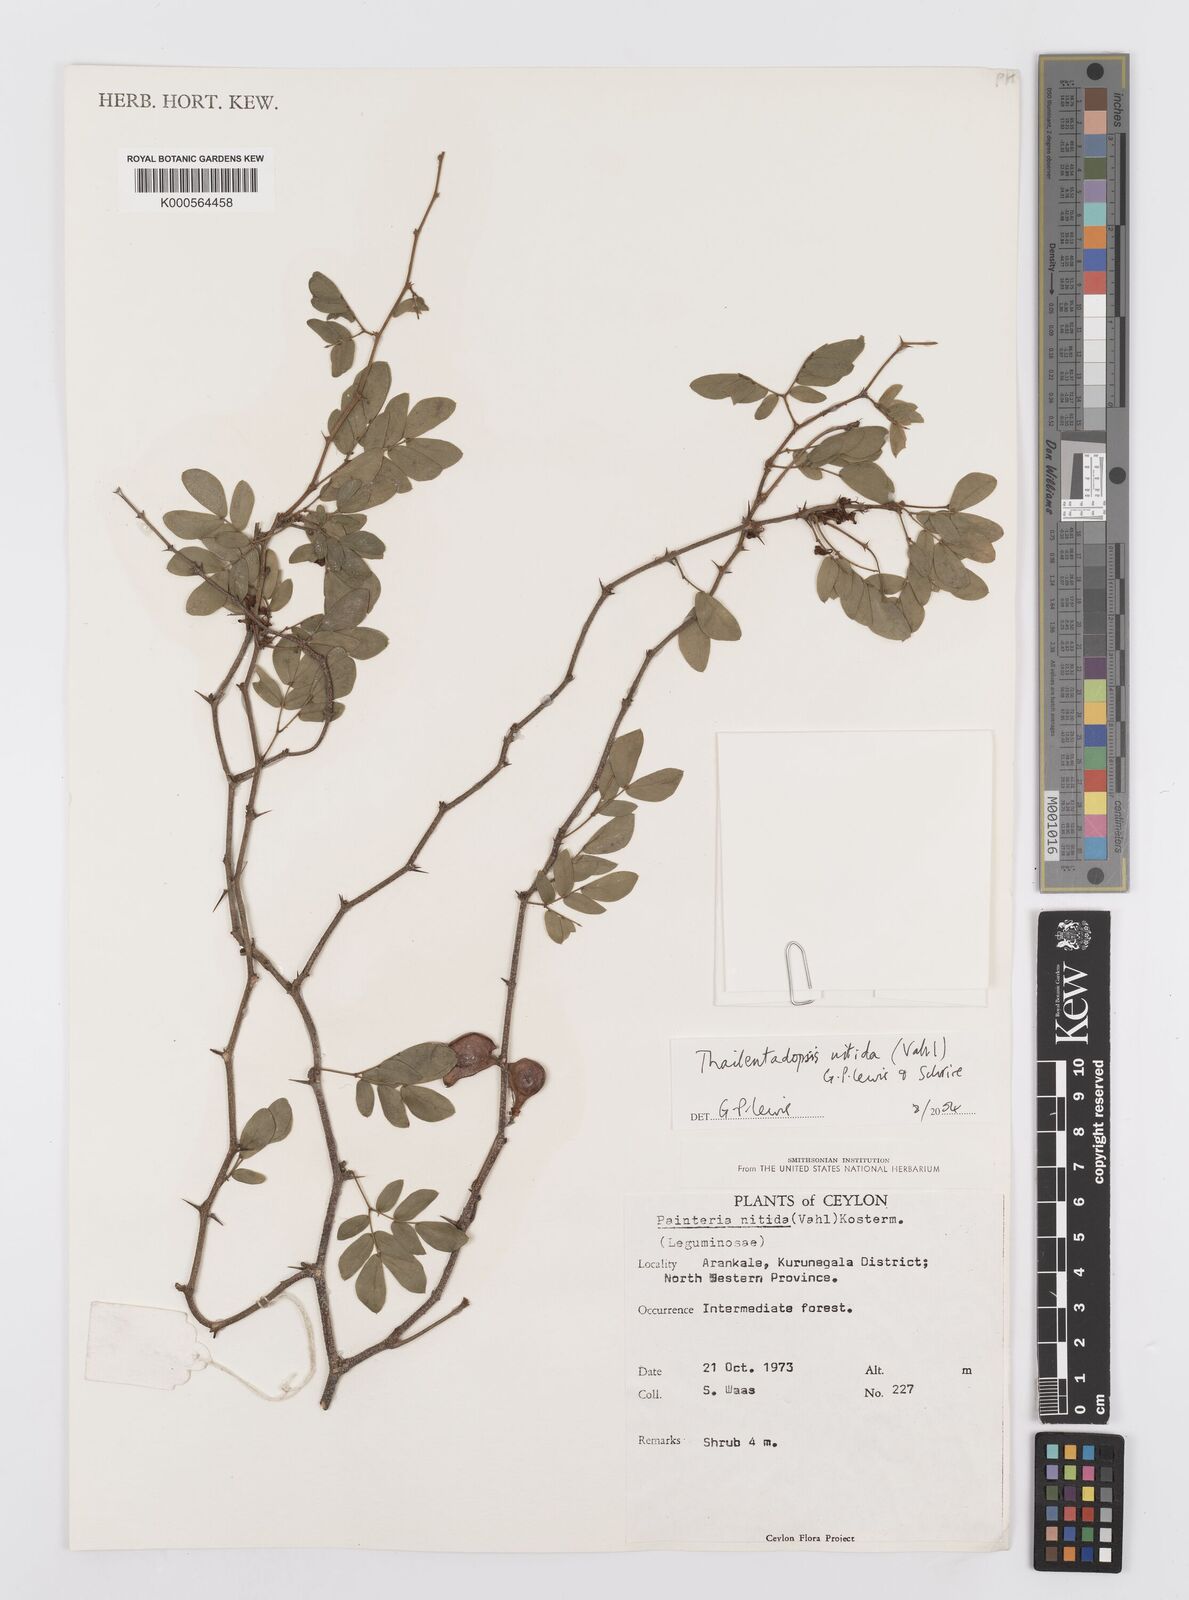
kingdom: Plantae
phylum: Tracheophyta
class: Magnoliopsida
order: Fabales
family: Fabaceae
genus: Thailentadopsis
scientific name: Thailentadopsis nitida
